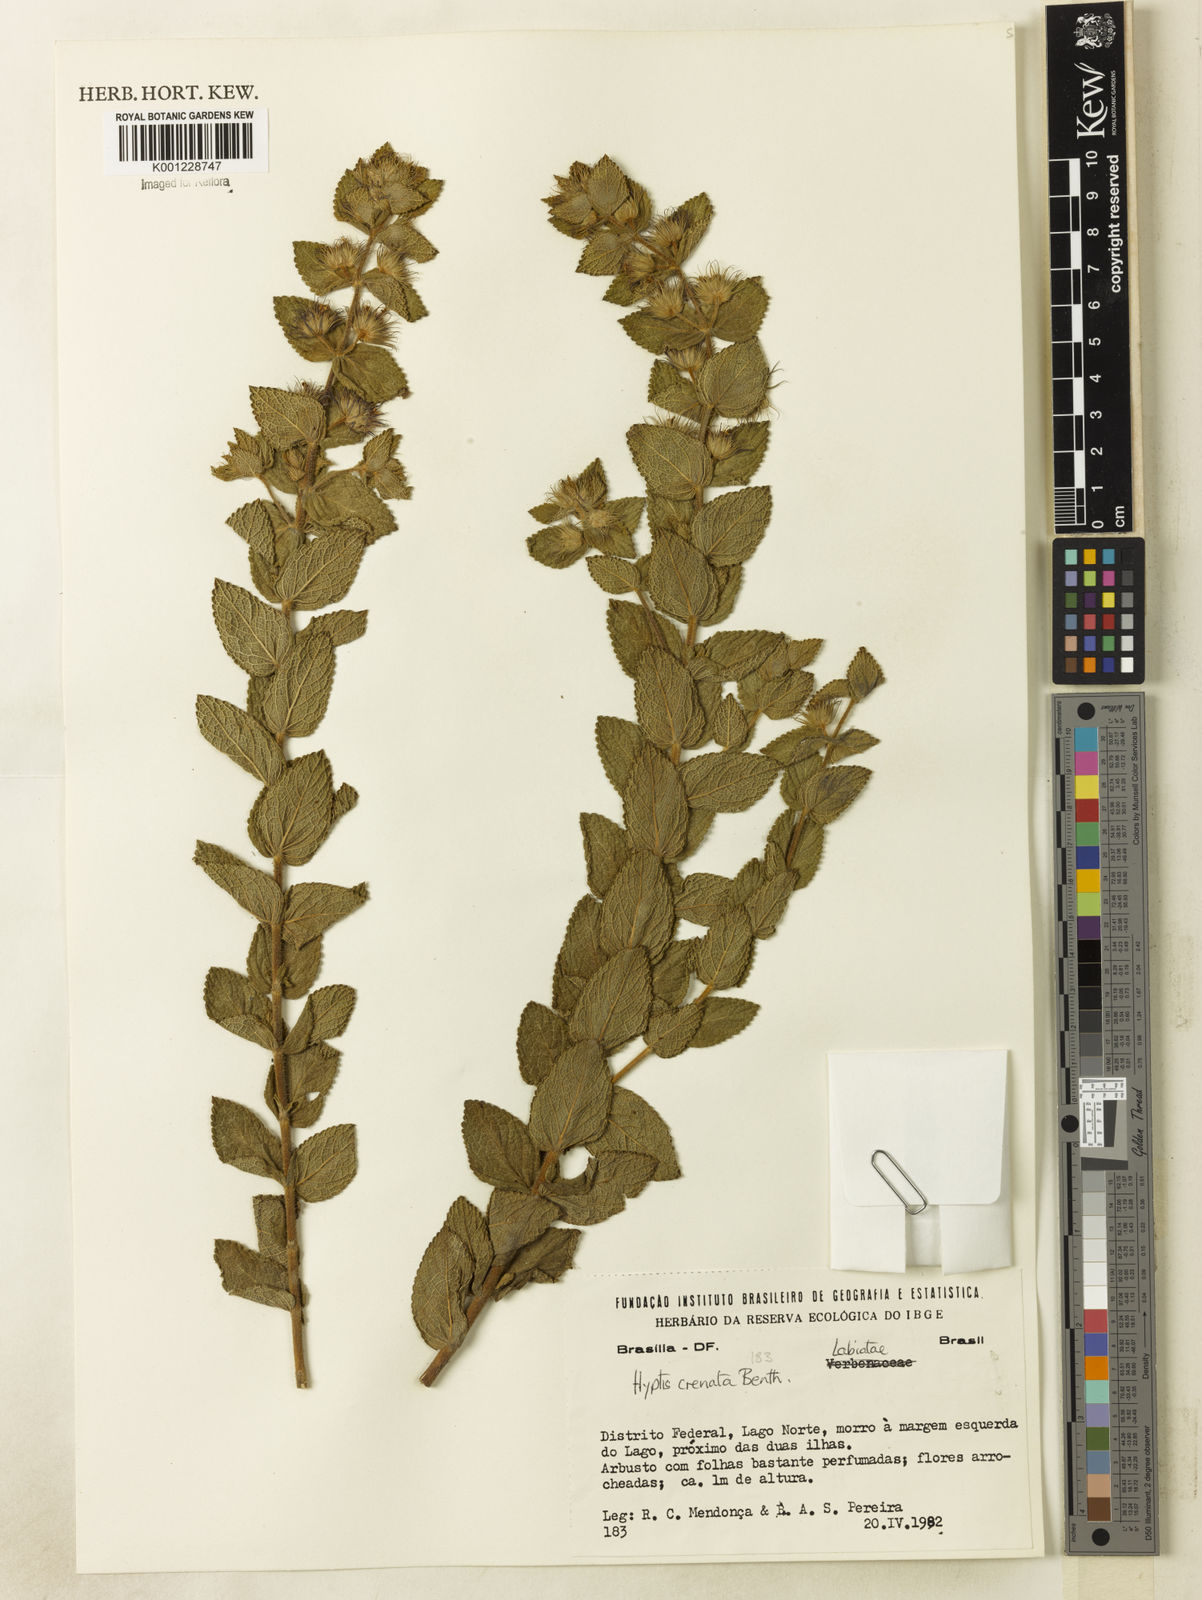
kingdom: Plantae
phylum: Tracheophyta
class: Magnoliopsida
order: Lamiales
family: Lamiaceae
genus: Hyptis
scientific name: Hyptis crenata
